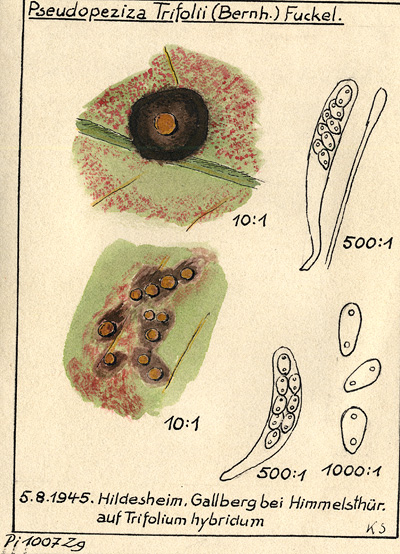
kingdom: Fungi
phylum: Ascomycota
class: Leotiomycetes
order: Helotiales
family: Drepanopezizaceae
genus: Pseudopeziza
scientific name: Pseudopeziza trifolii
